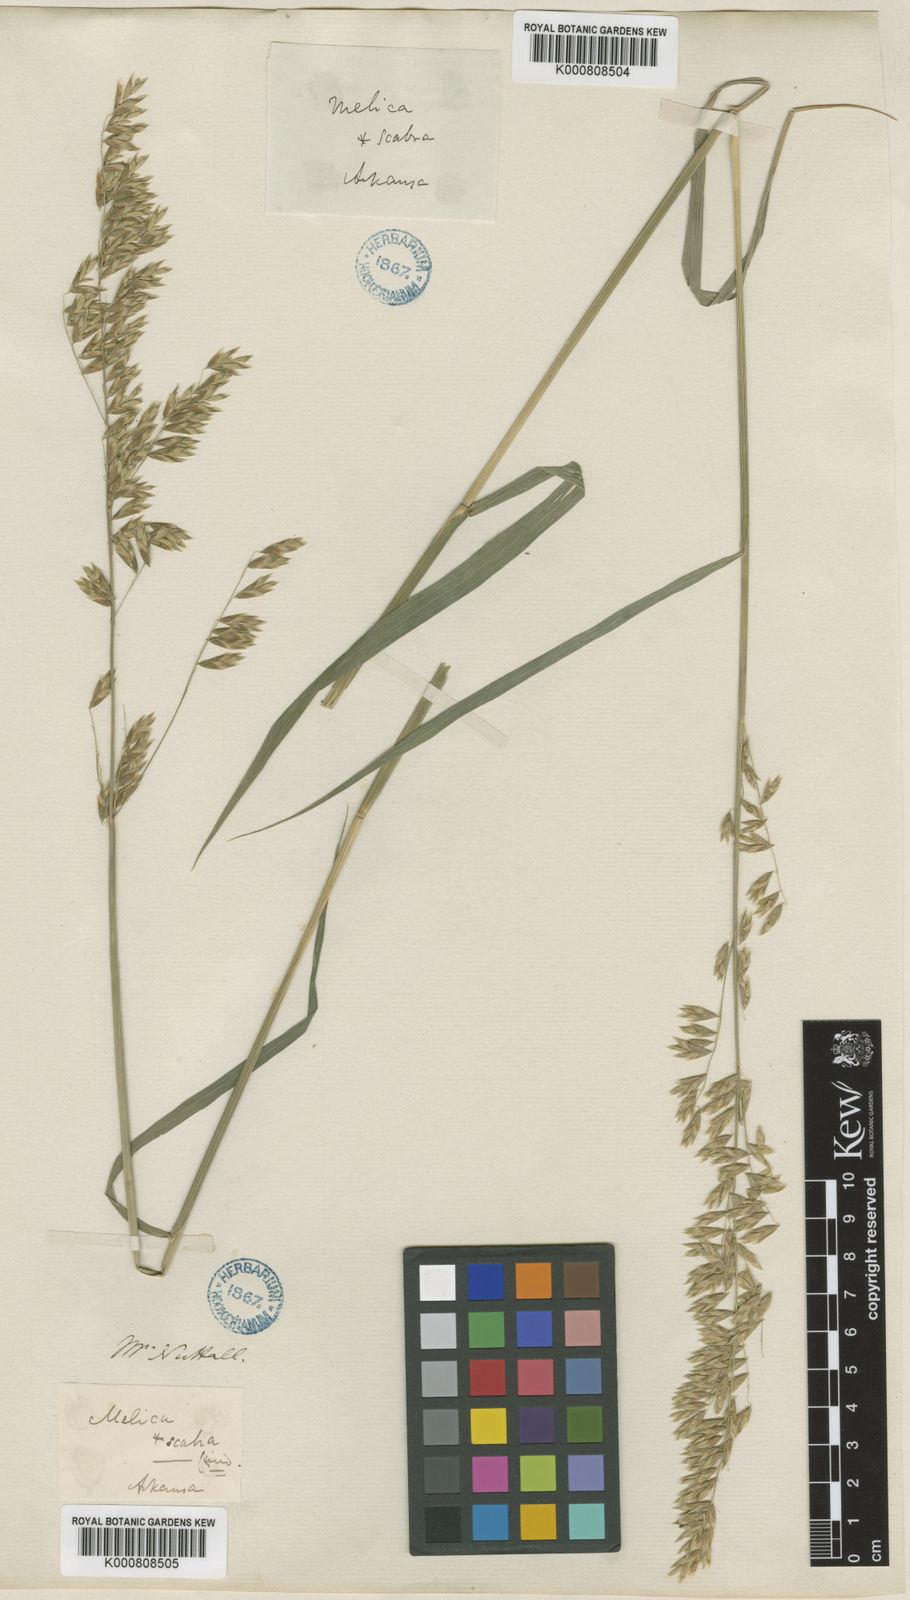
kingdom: Plantae
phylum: Tracheophyta
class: Liliopsida
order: Poales
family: Poaceae
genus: Melica
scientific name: Melica nitens
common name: Three-flower melic
